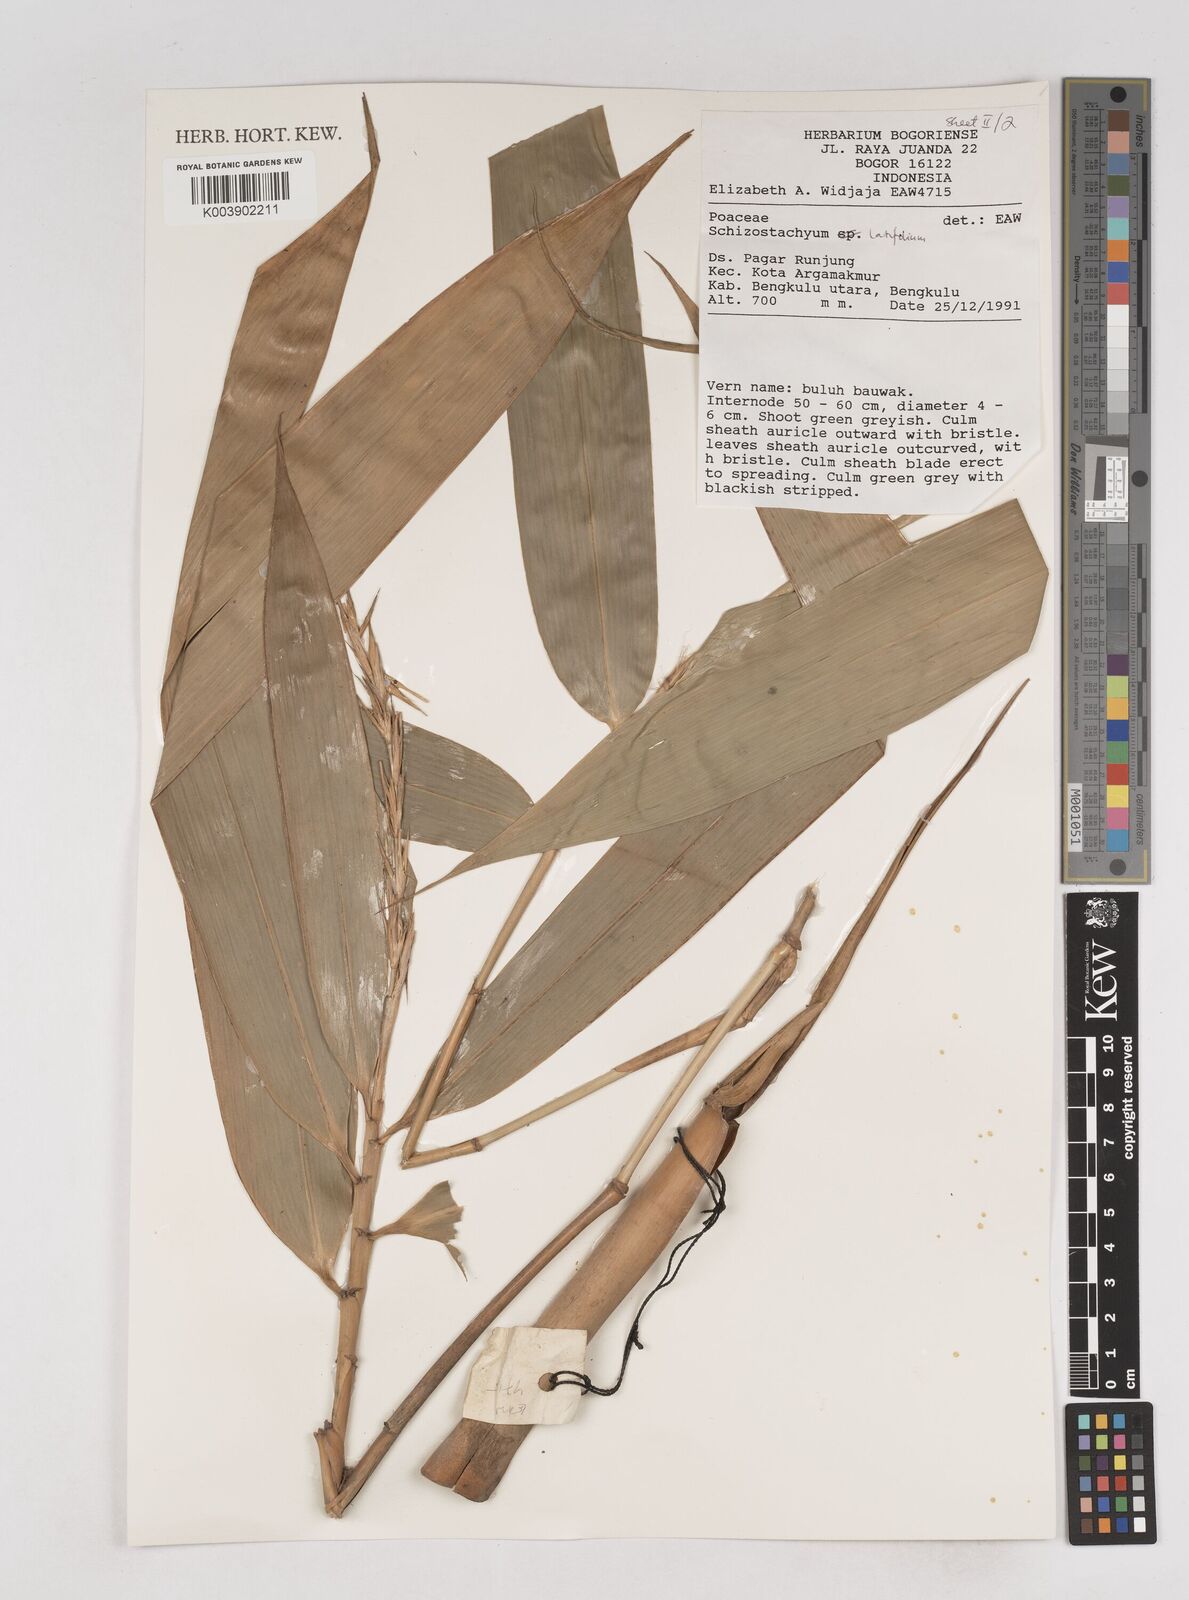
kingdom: Plantae
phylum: Tracheophyta
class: Liliopsida
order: Poales
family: Poaceae
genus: Schizostachyum
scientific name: Schizostachyum latifolium
